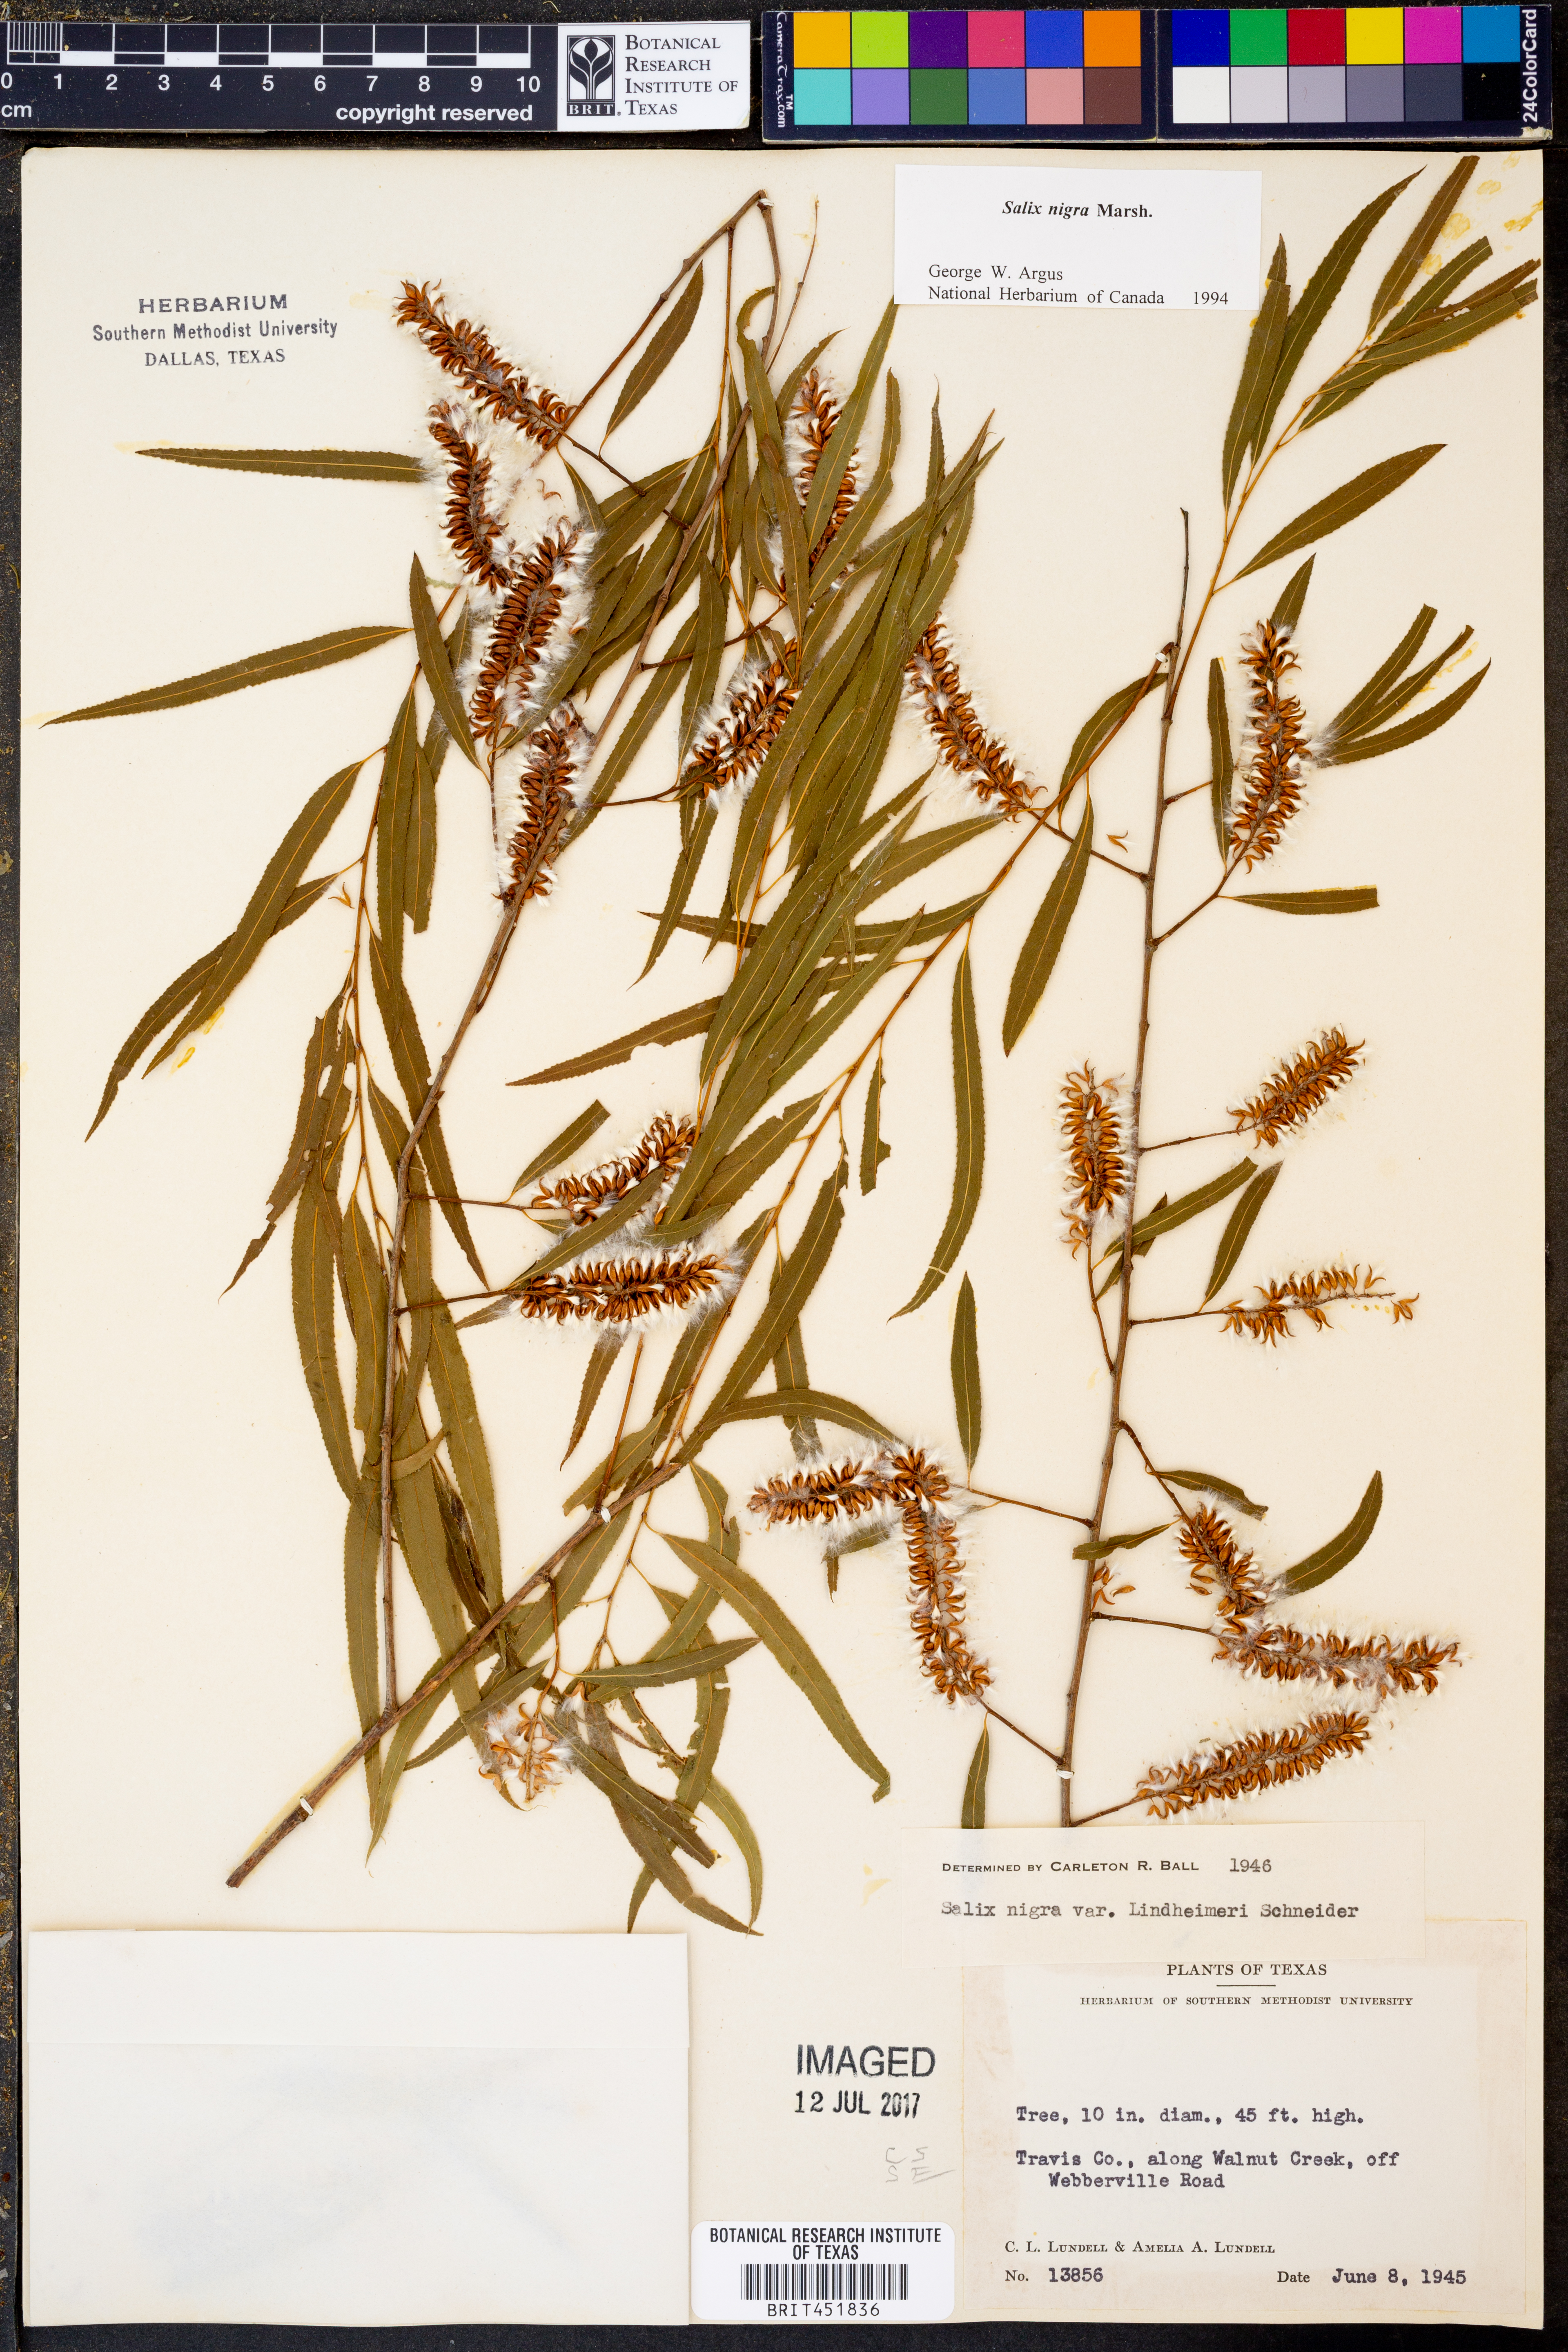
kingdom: Plantae
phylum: Tracheophyta
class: Magnoliopsida
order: Malpighiales
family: Salicaceae
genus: Salix
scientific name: Salix nigra
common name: Black willow
